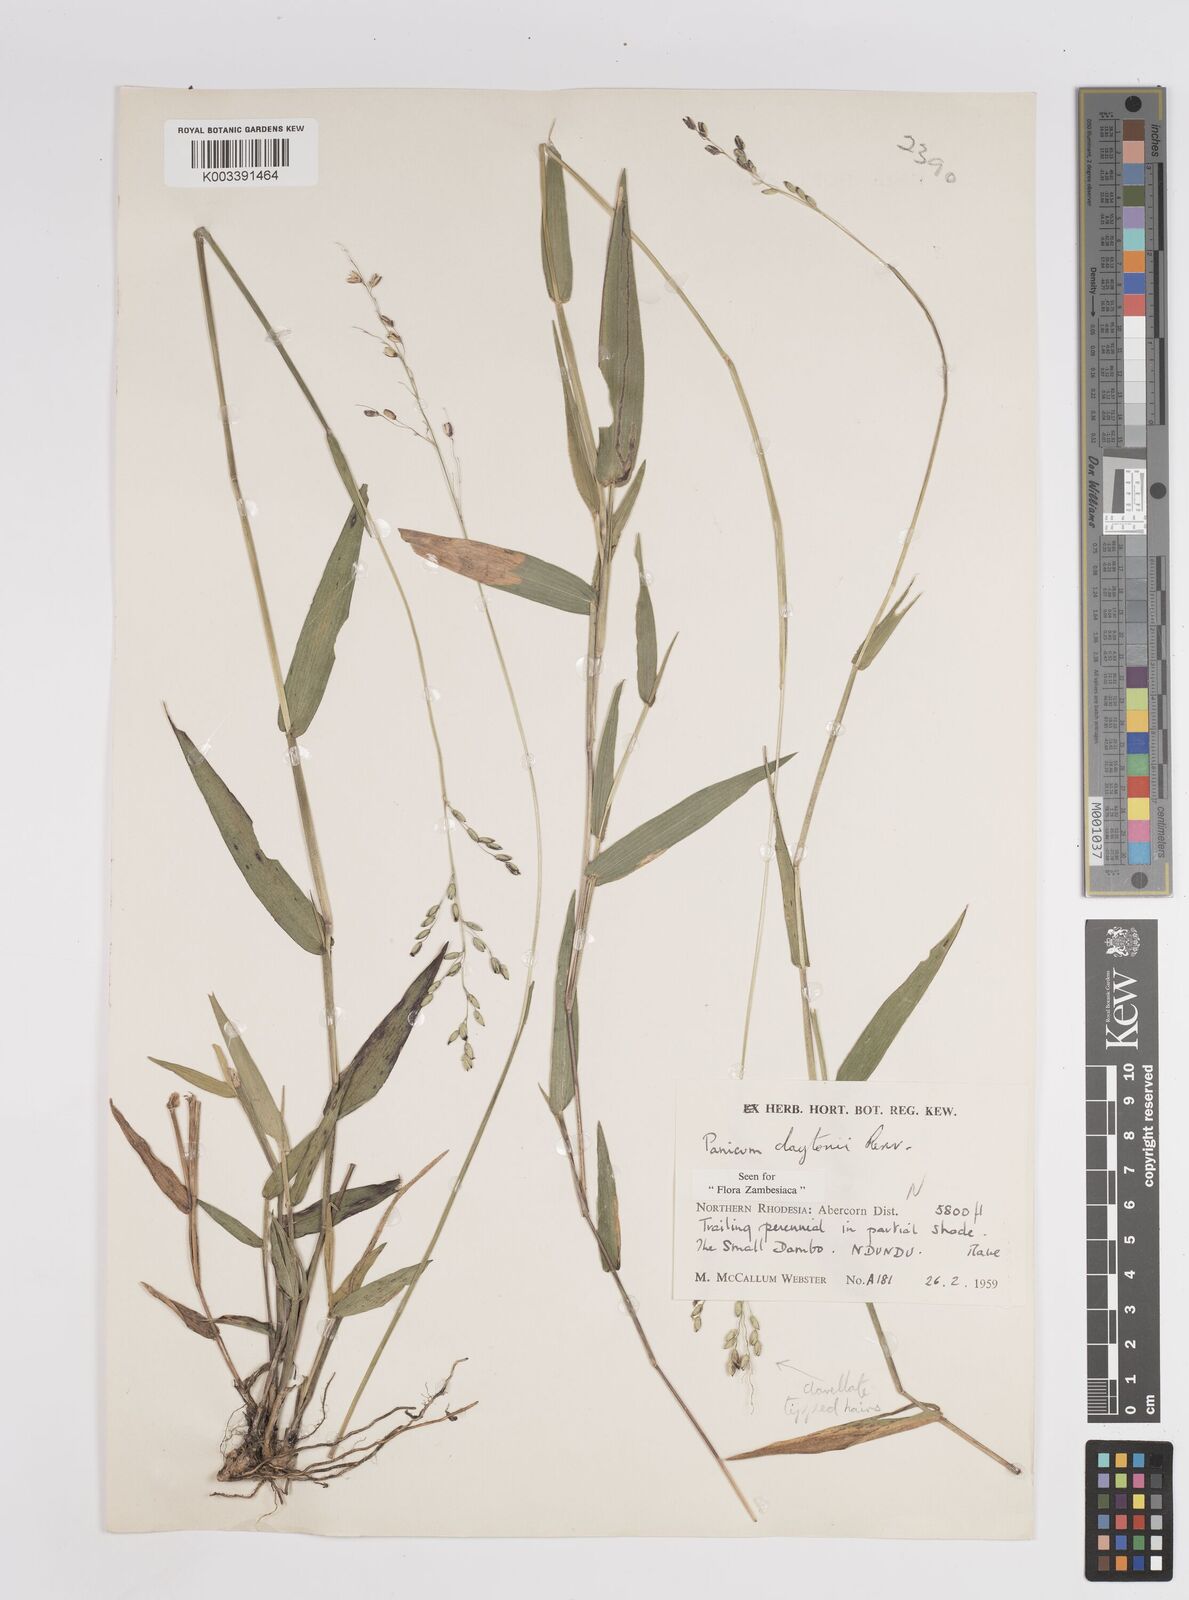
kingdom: Plantae
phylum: Tracheophyta
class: Liliopsida
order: Poales
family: Poaceae
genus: Adenochloa
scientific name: Adenochloa claytonii
